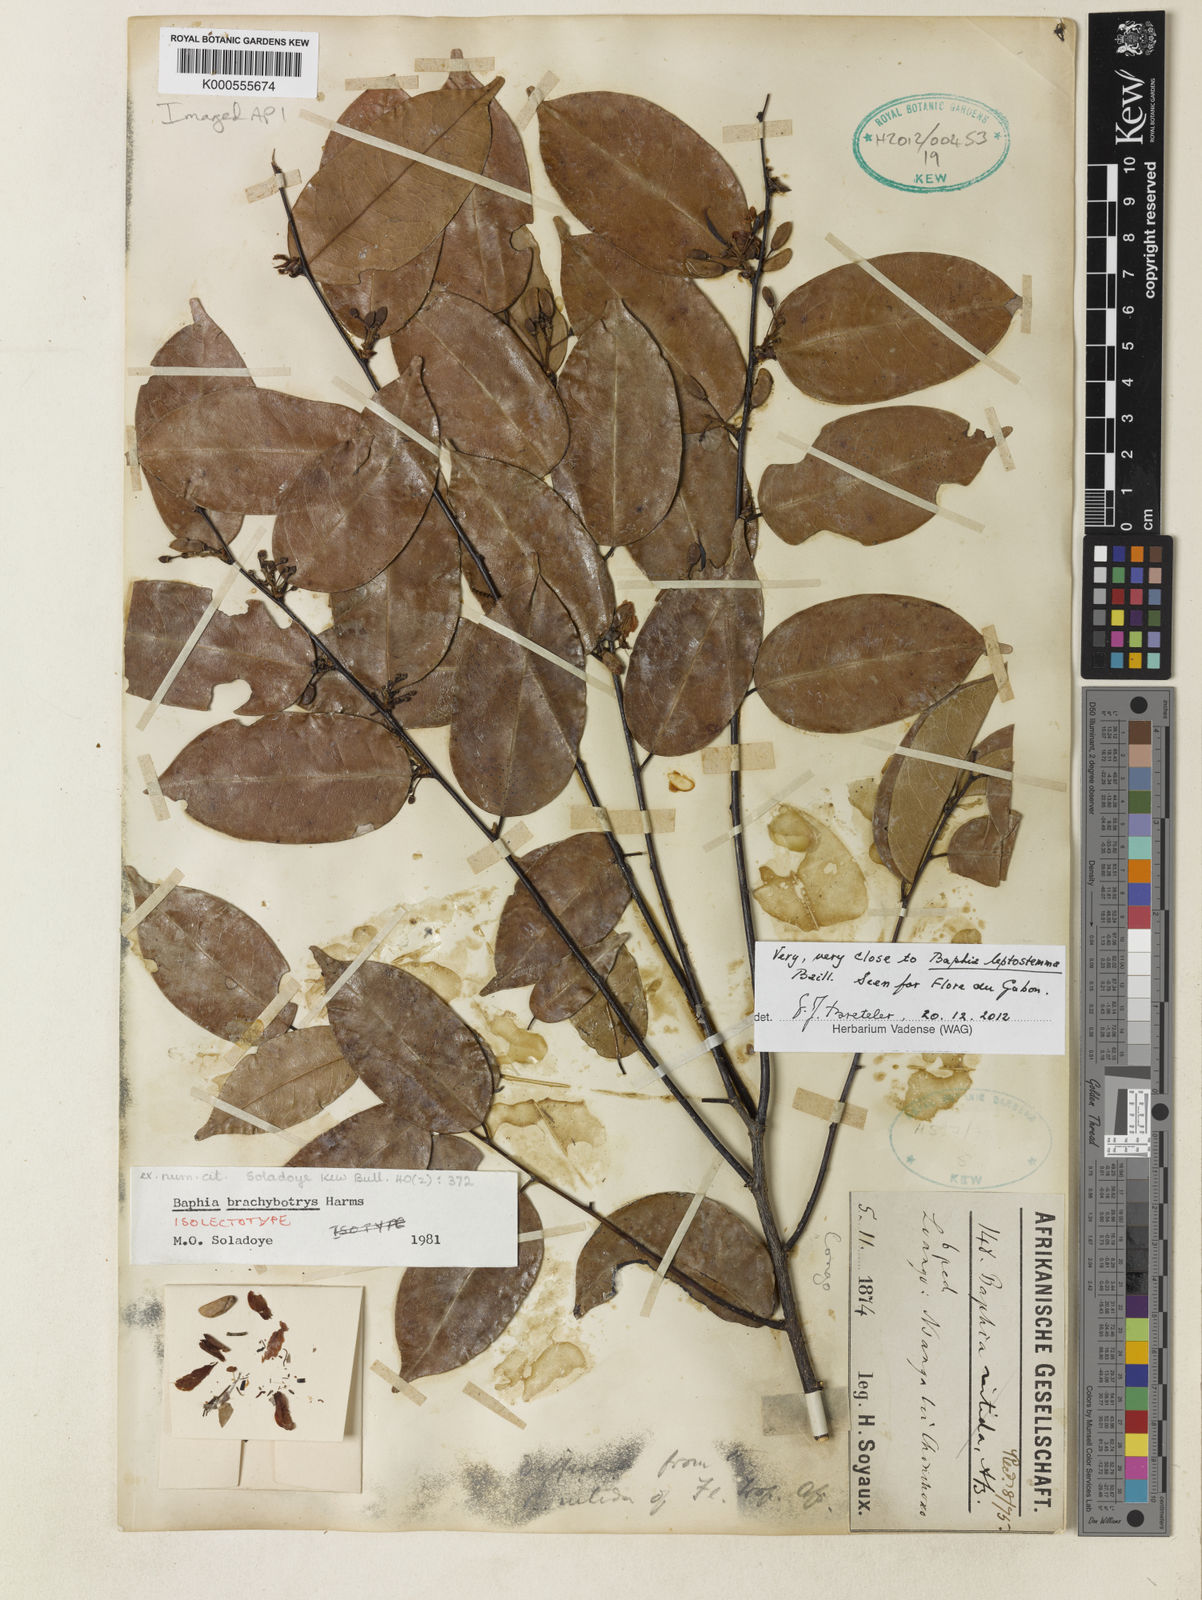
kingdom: Plantae
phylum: Tracheophyta
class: Magnoliopsida
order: Fabales
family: Fabaceae
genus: Baphia
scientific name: Baphia brachybotrys
